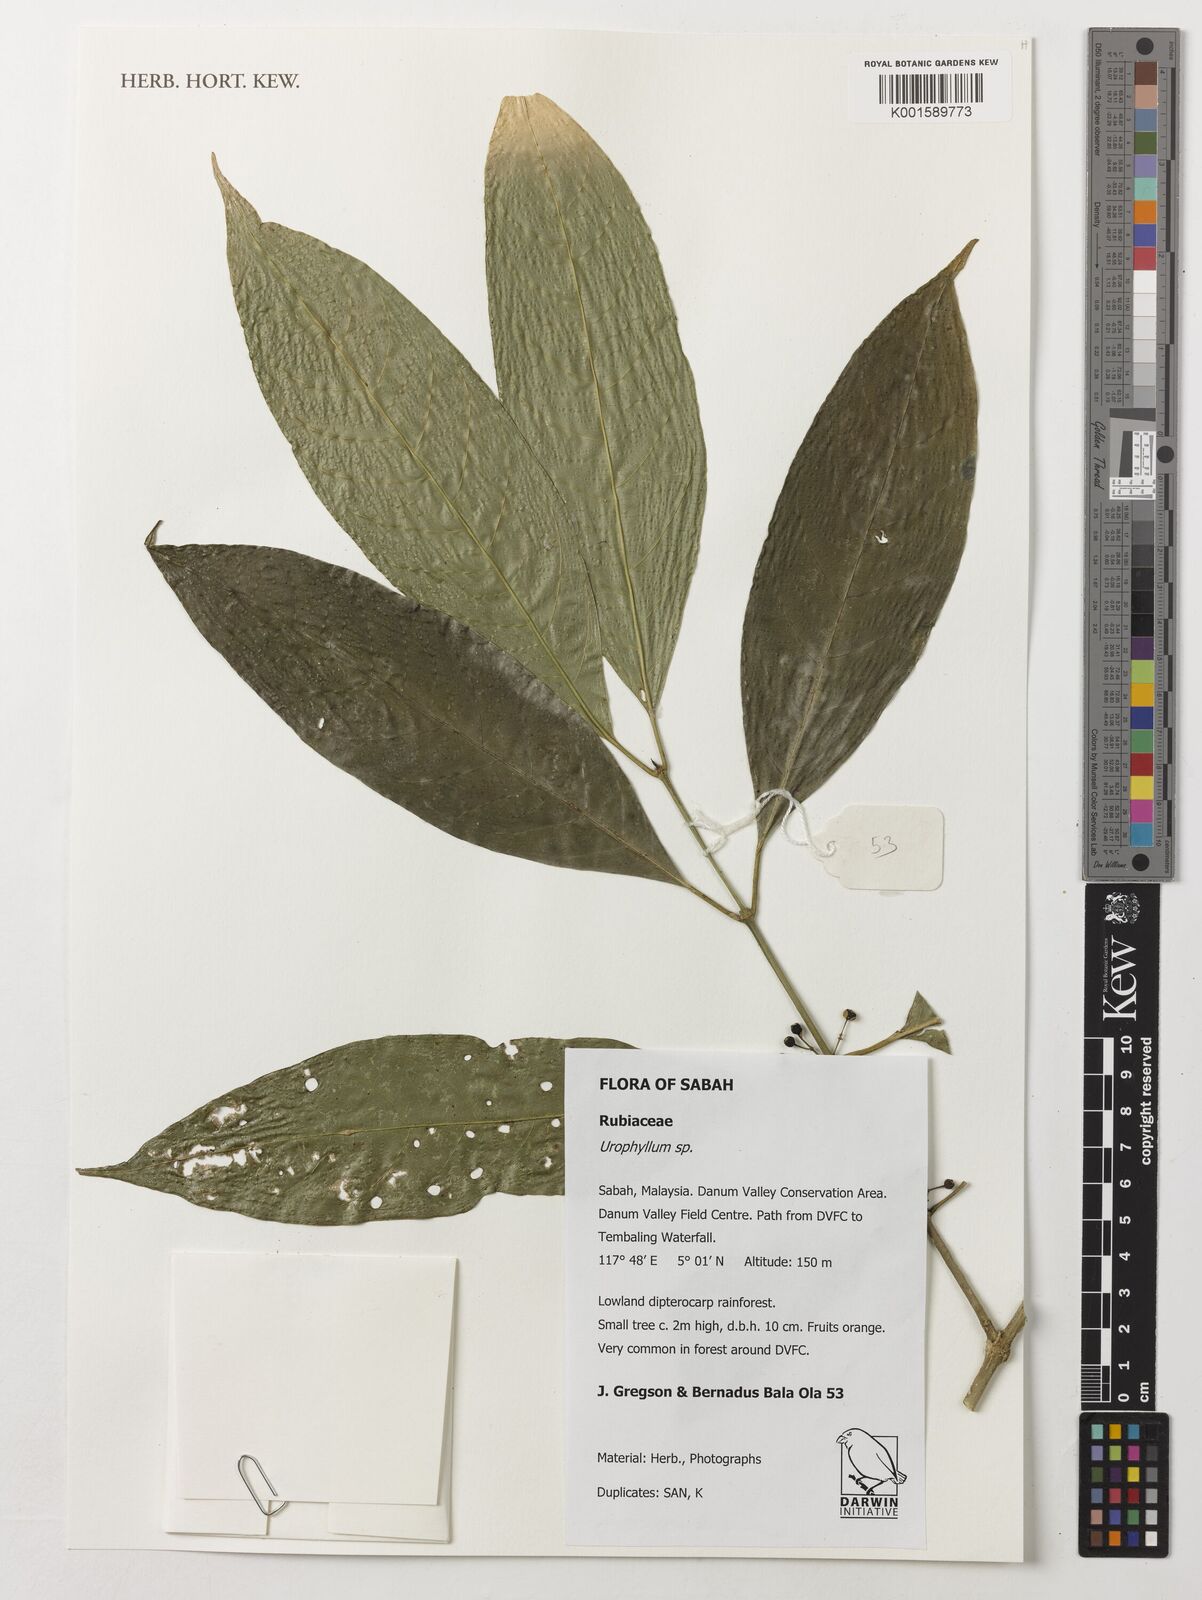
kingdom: Plantae
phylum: Tracheophyta
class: Magnoliopsida
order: Gentianales
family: Rubiaceae
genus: Urophyllum
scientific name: Urophyllum
